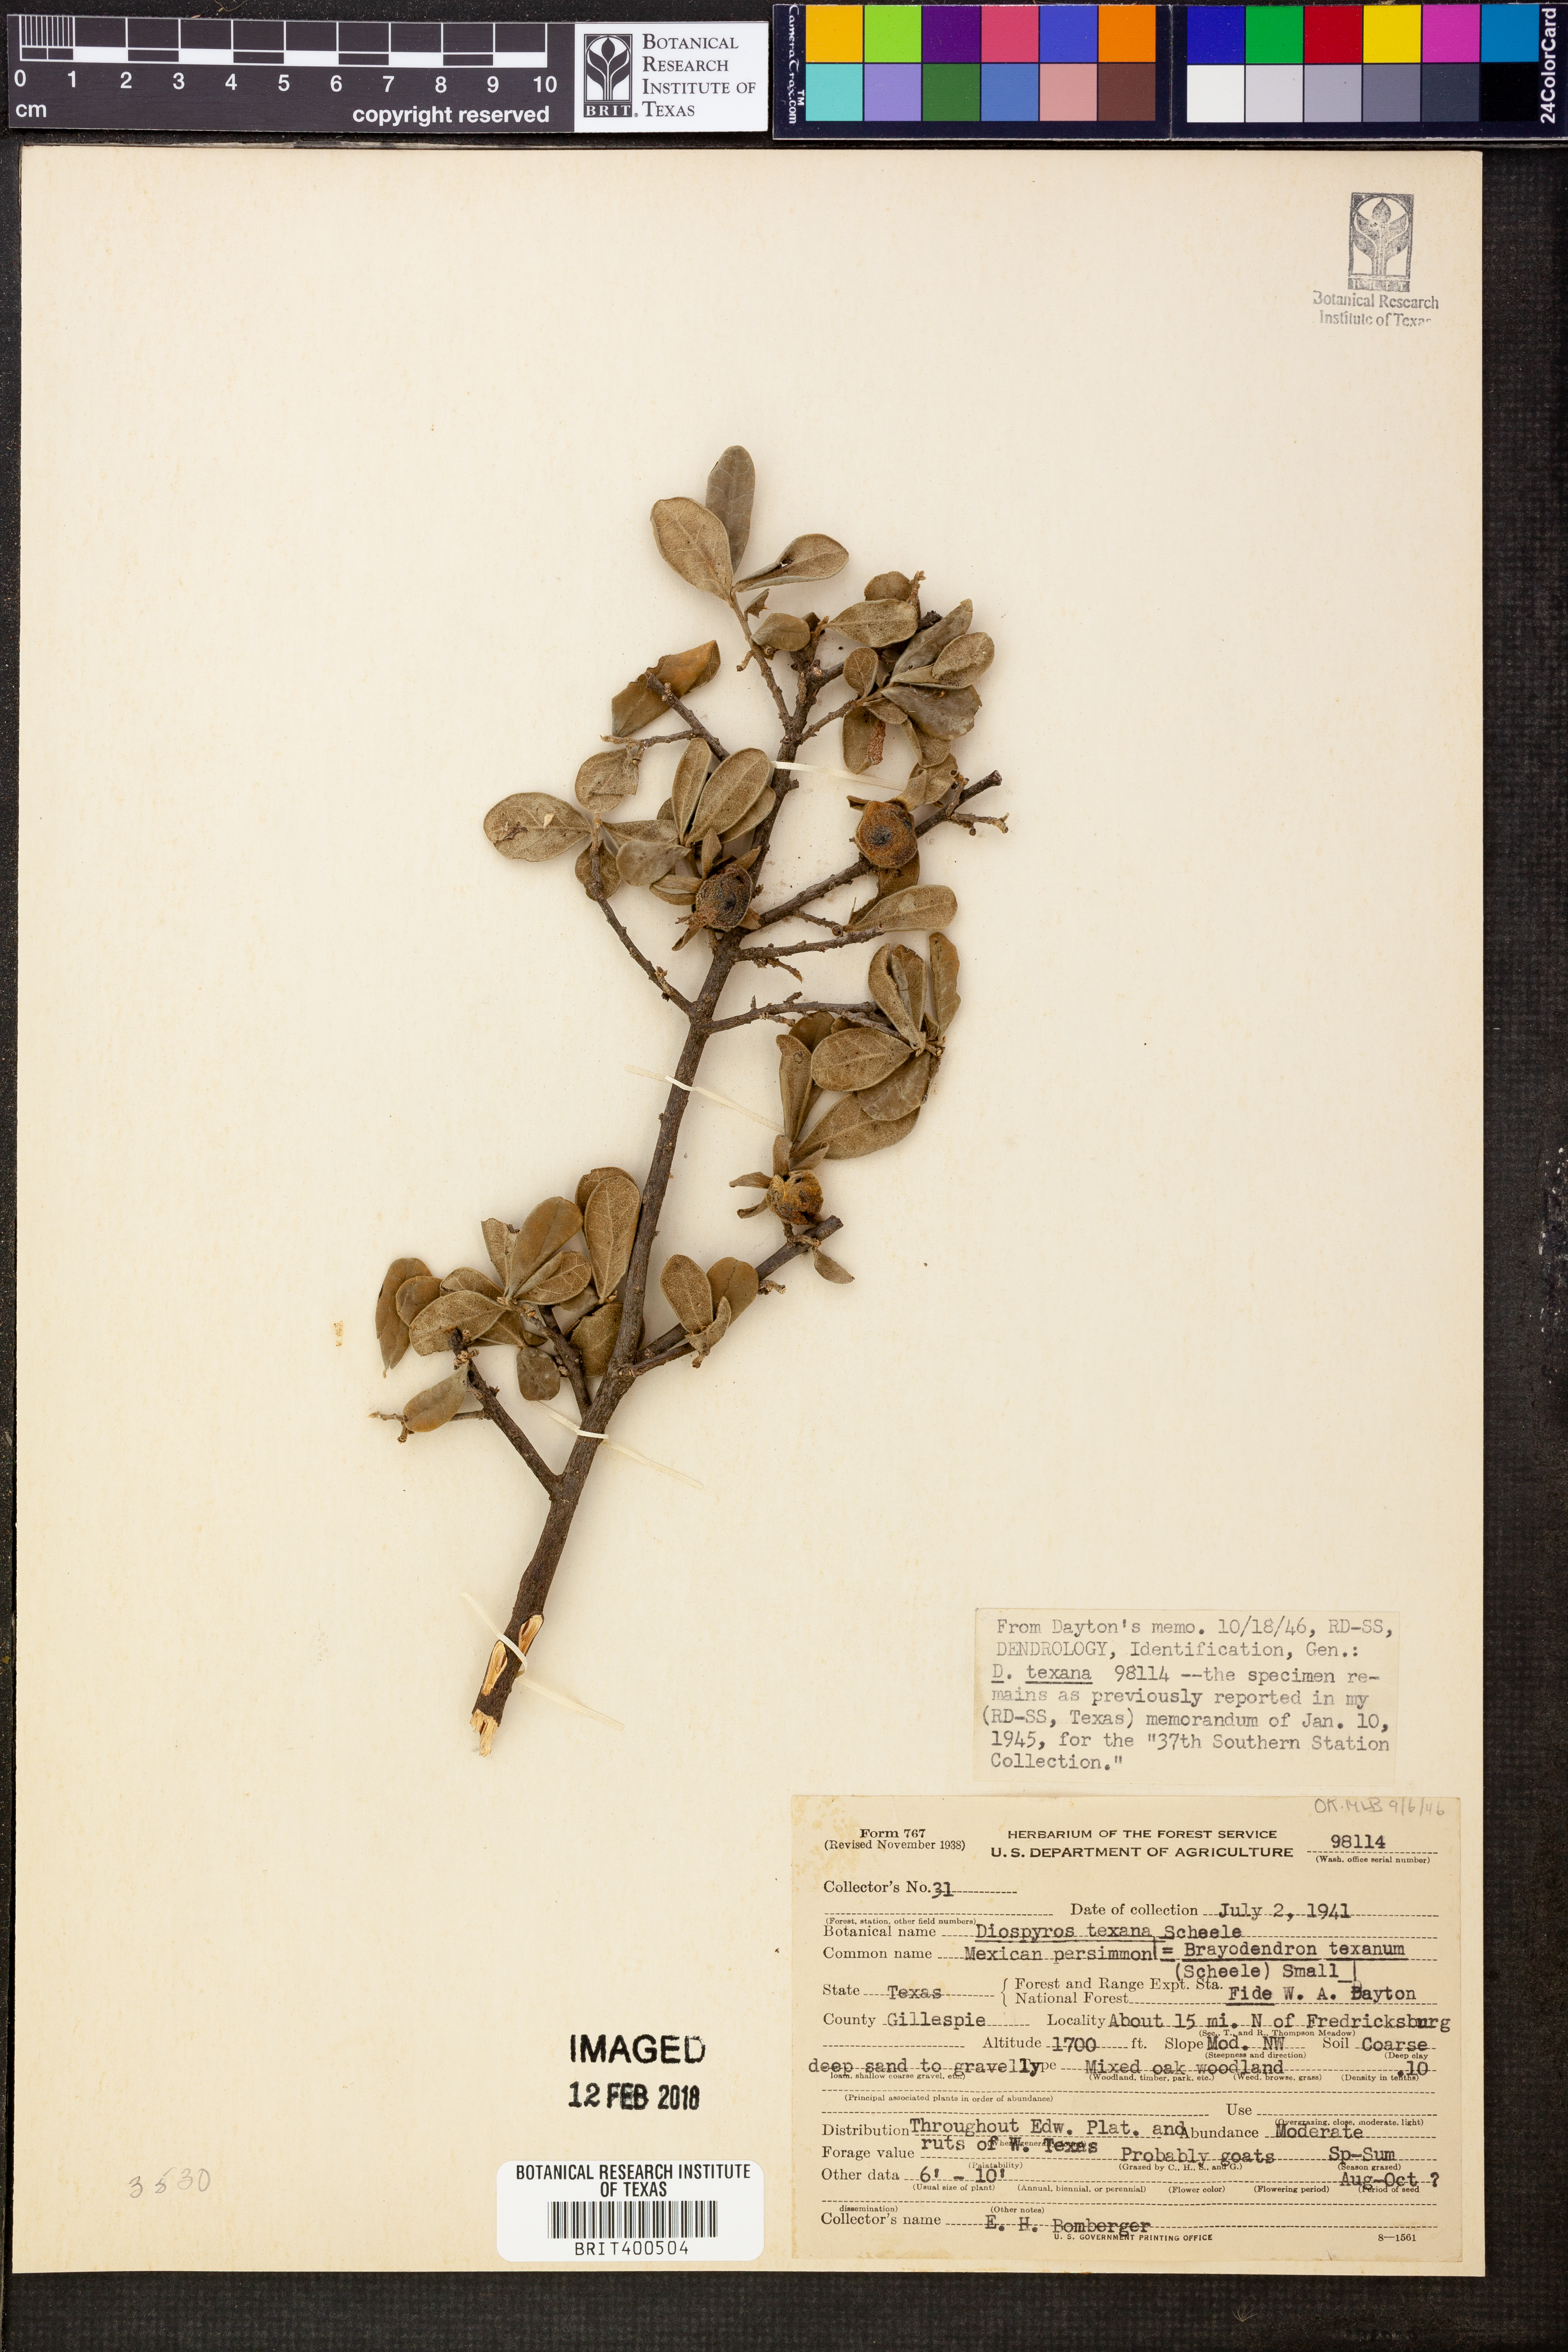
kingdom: Plantae
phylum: Tracheophyta
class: Magnoliopsida
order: Ericales
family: Ebenaceae
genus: Diospyros
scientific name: Diospyros texana
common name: Texas persimmon
